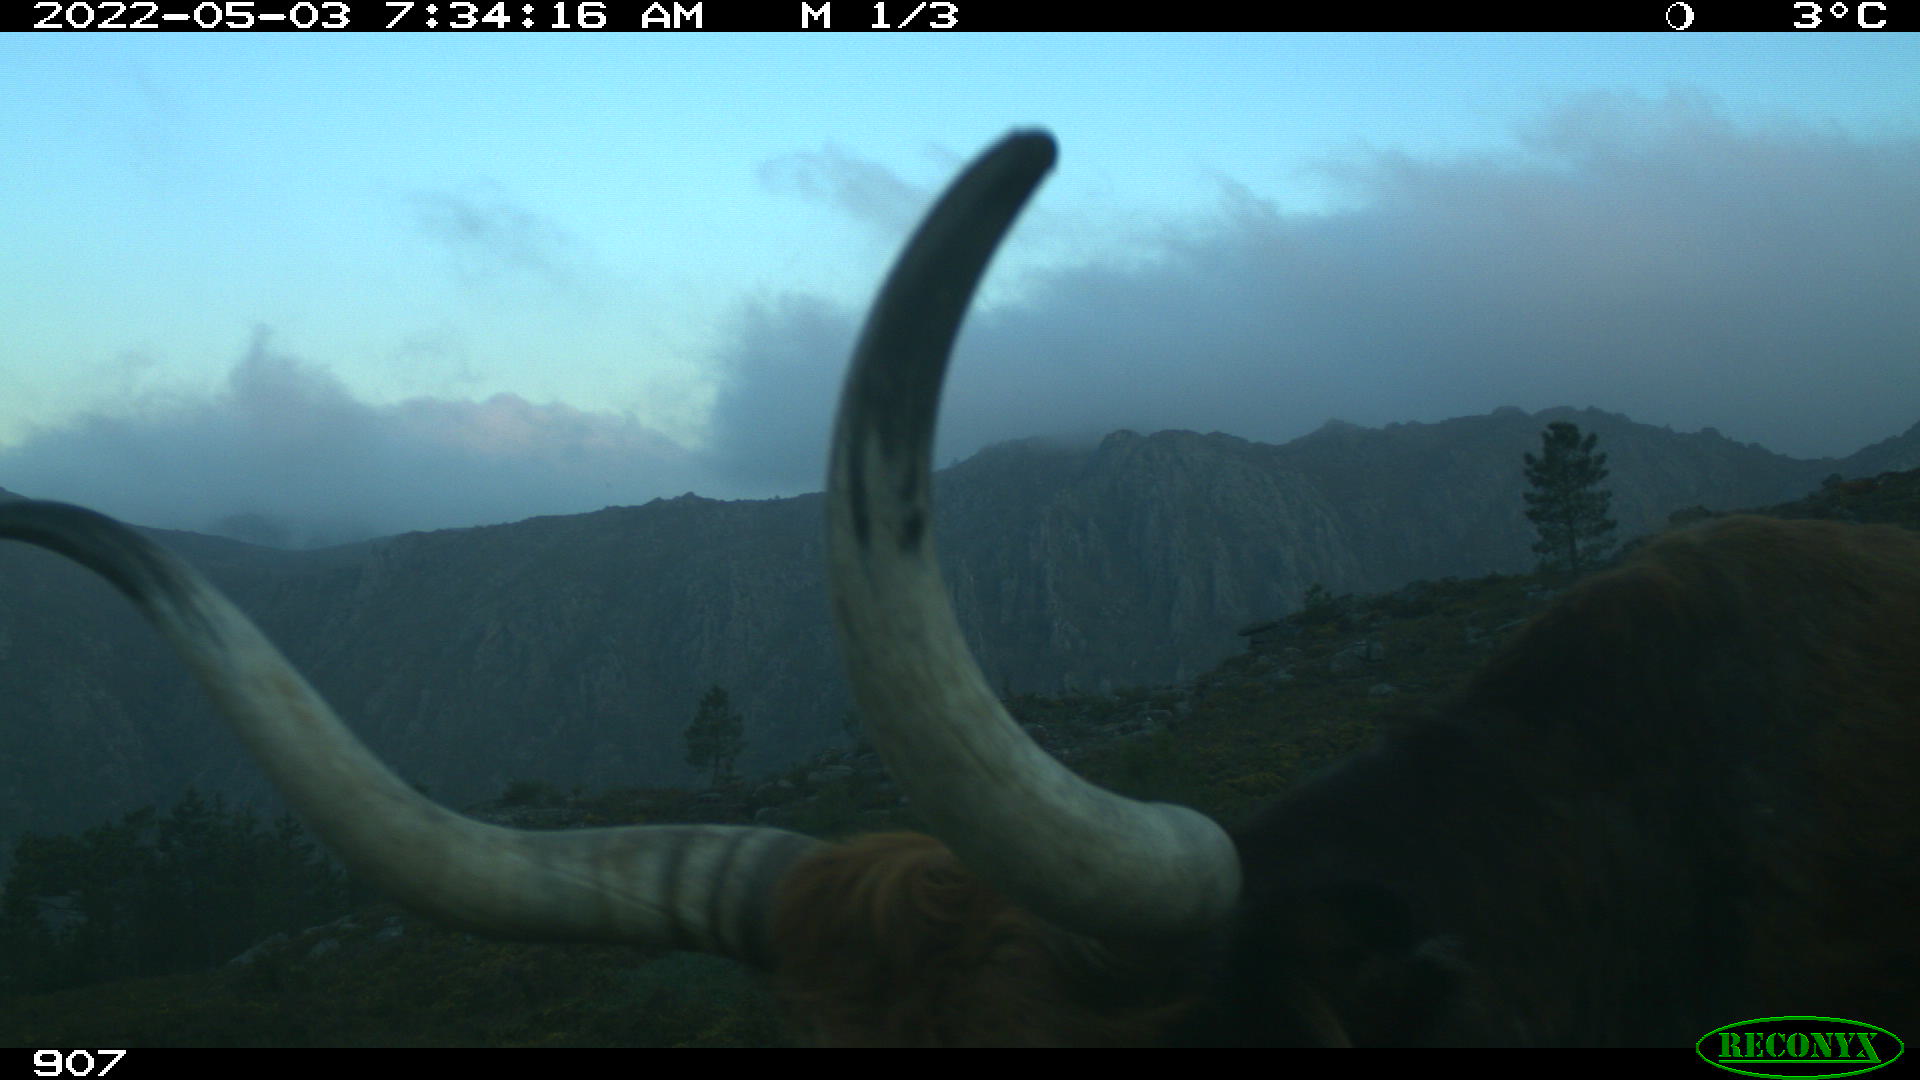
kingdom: Animalia
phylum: Chordata
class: Mammalia
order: Artiodactyla
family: Bovidae
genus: Bos
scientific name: Bos taurus
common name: Domesticated cattle
